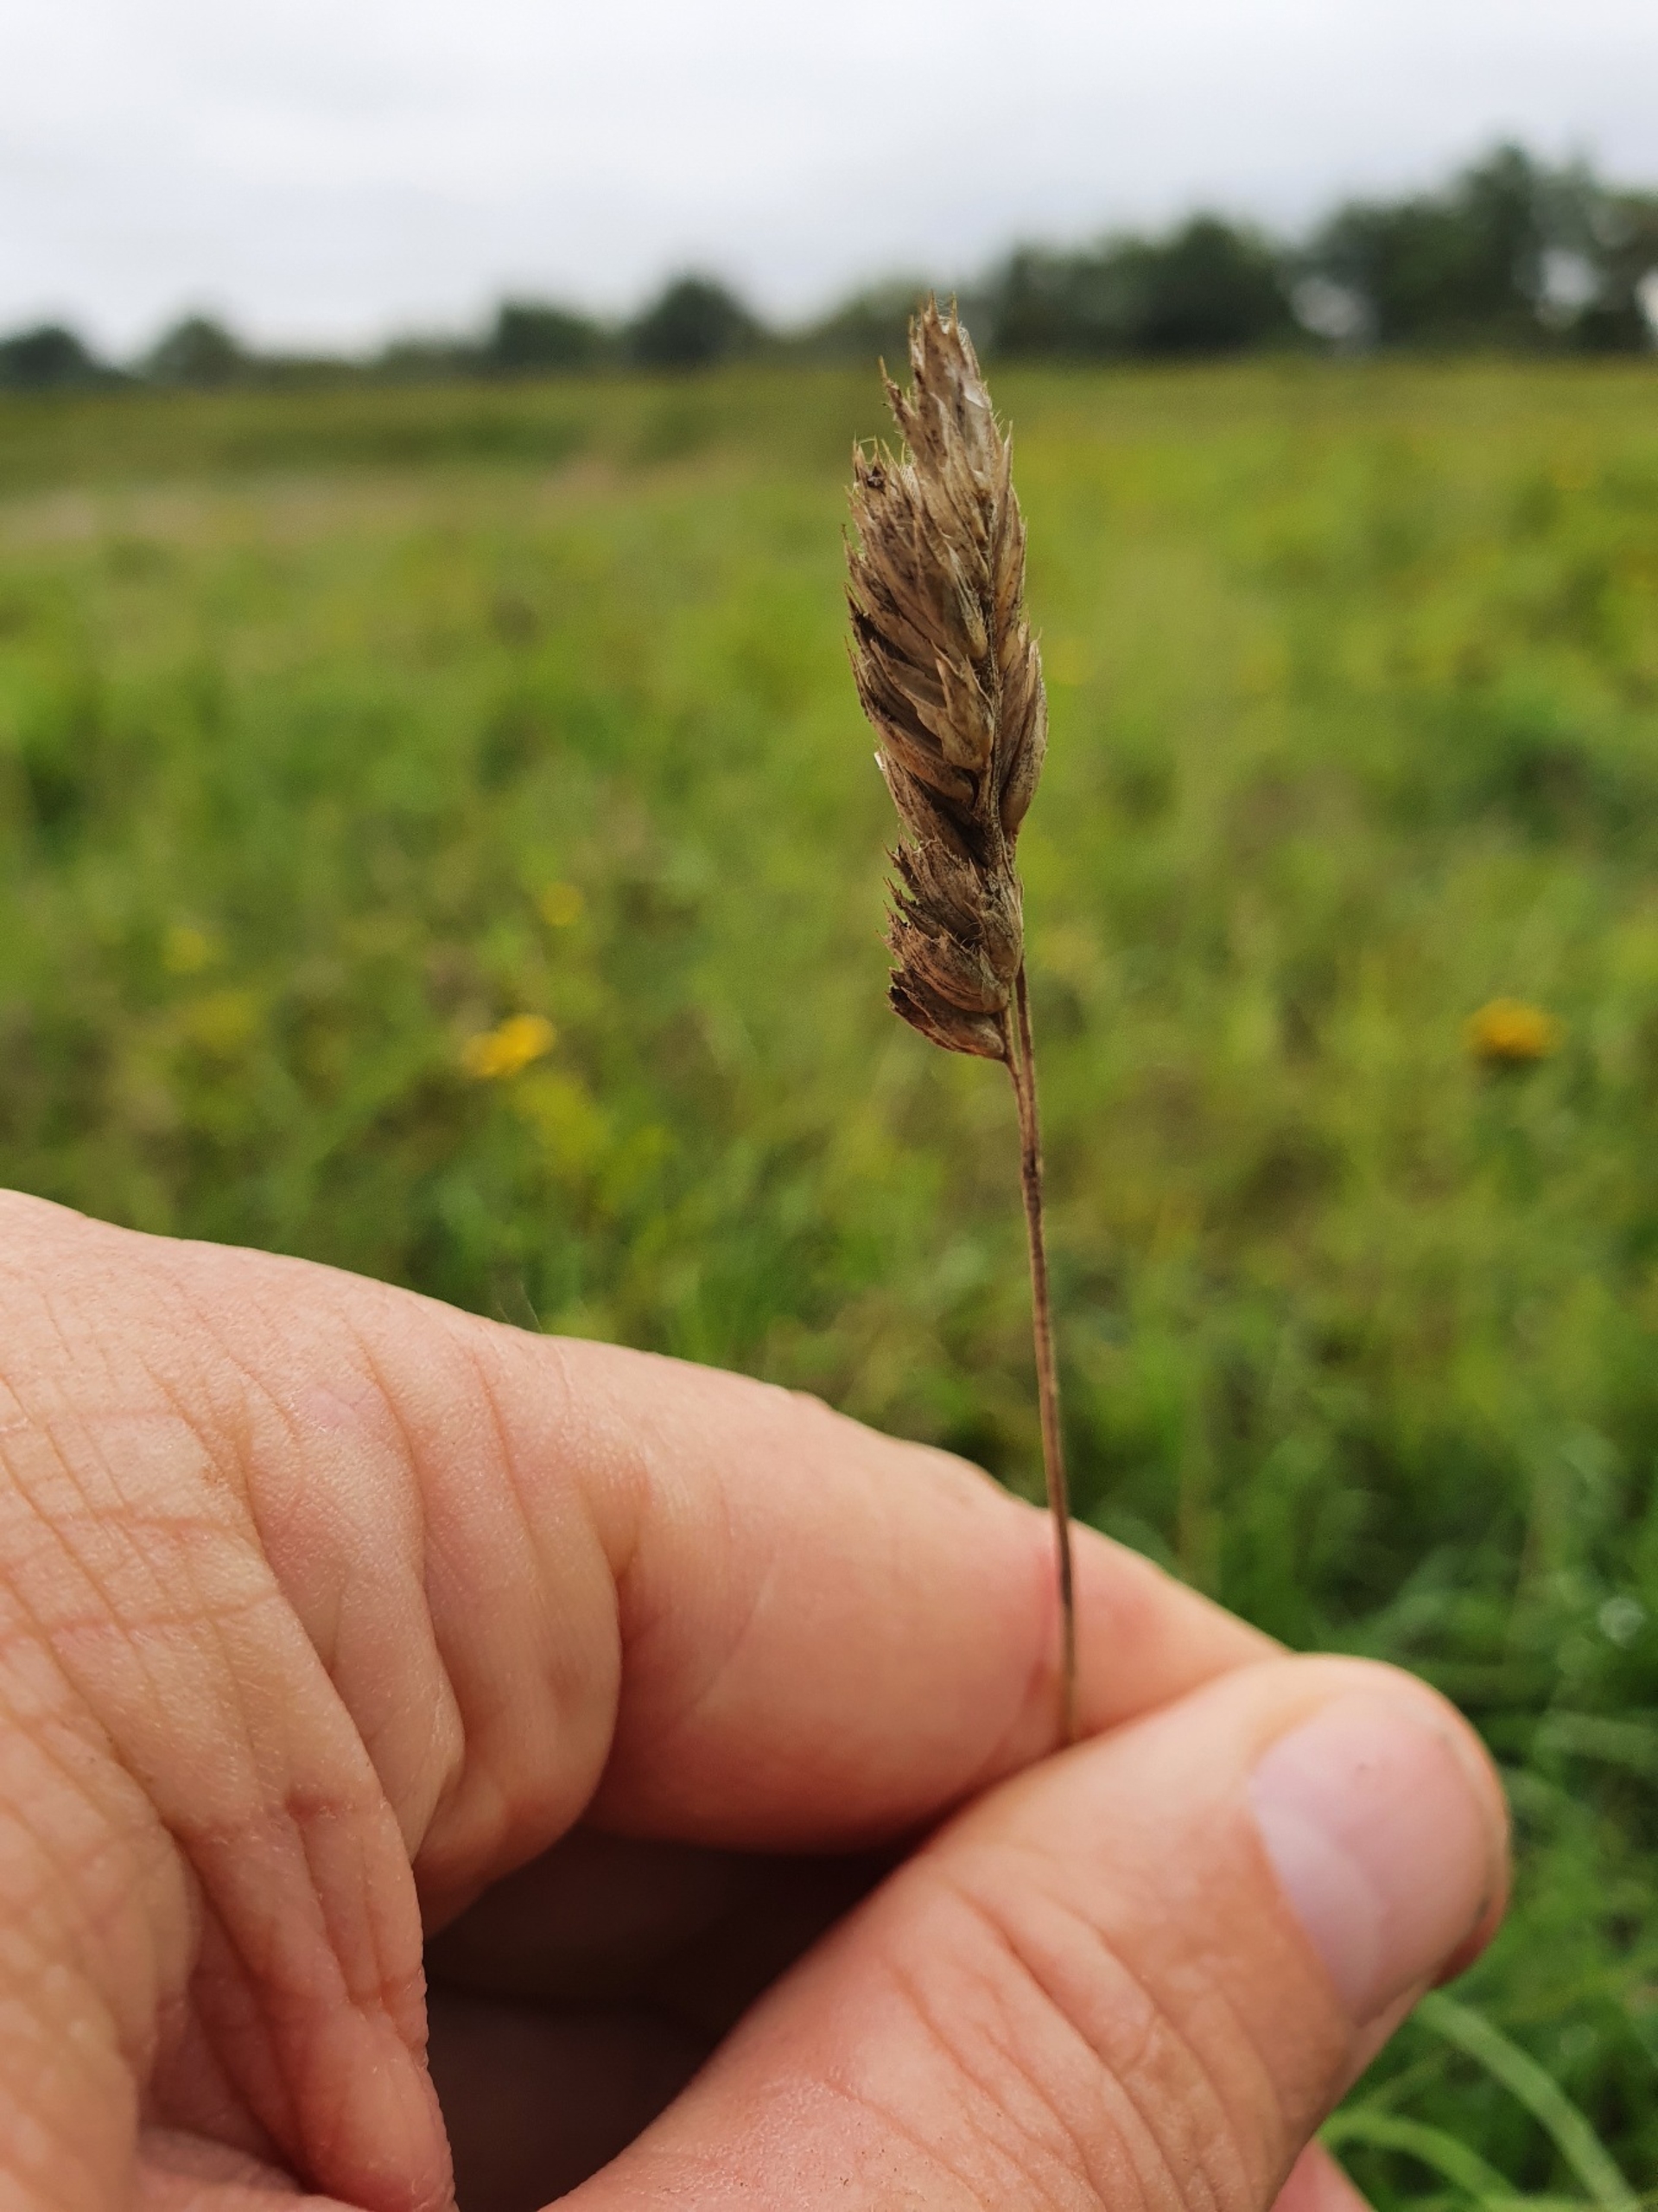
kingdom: Plantae
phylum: Tracheophyta
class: Liliopsida
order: Poales
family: Poaceae
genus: Dactylis
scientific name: Dactylis glomerata
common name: Almindelig hundegræs
